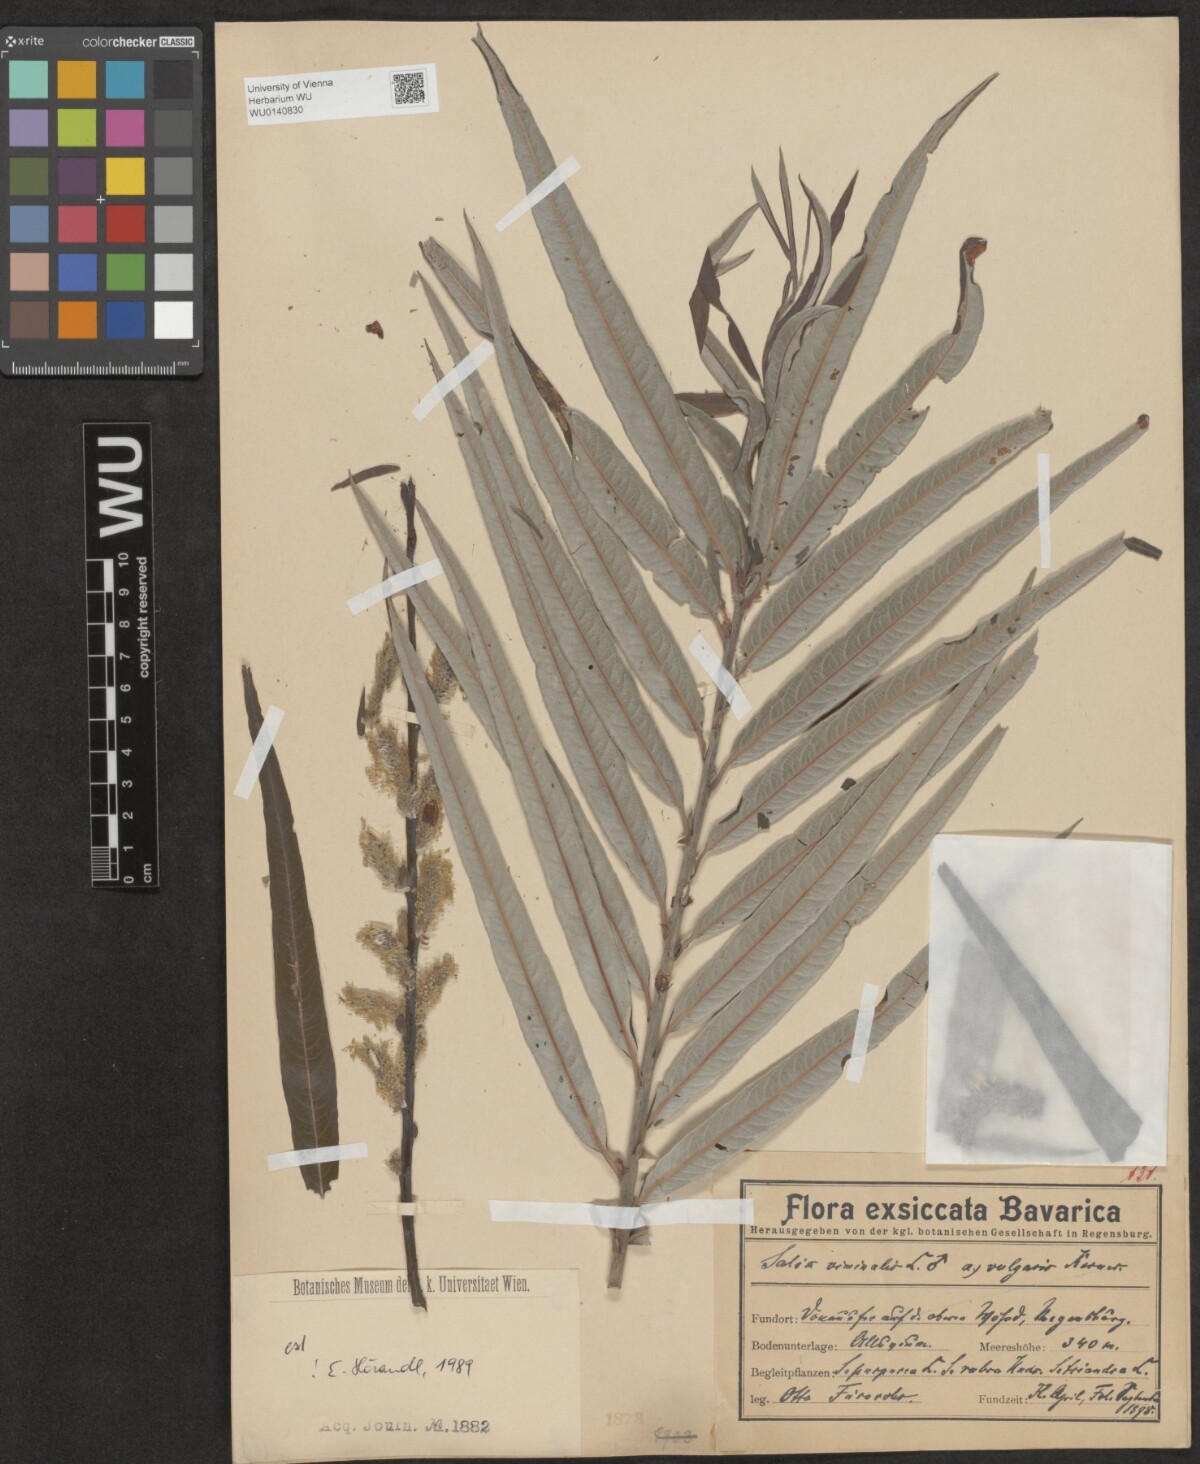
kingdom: Plantae
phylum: Tracheophyta
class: Magnoliopsida
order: Malpighiales
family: Salicaceae
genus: Salix
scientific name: Salix viminalis
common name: Osier
